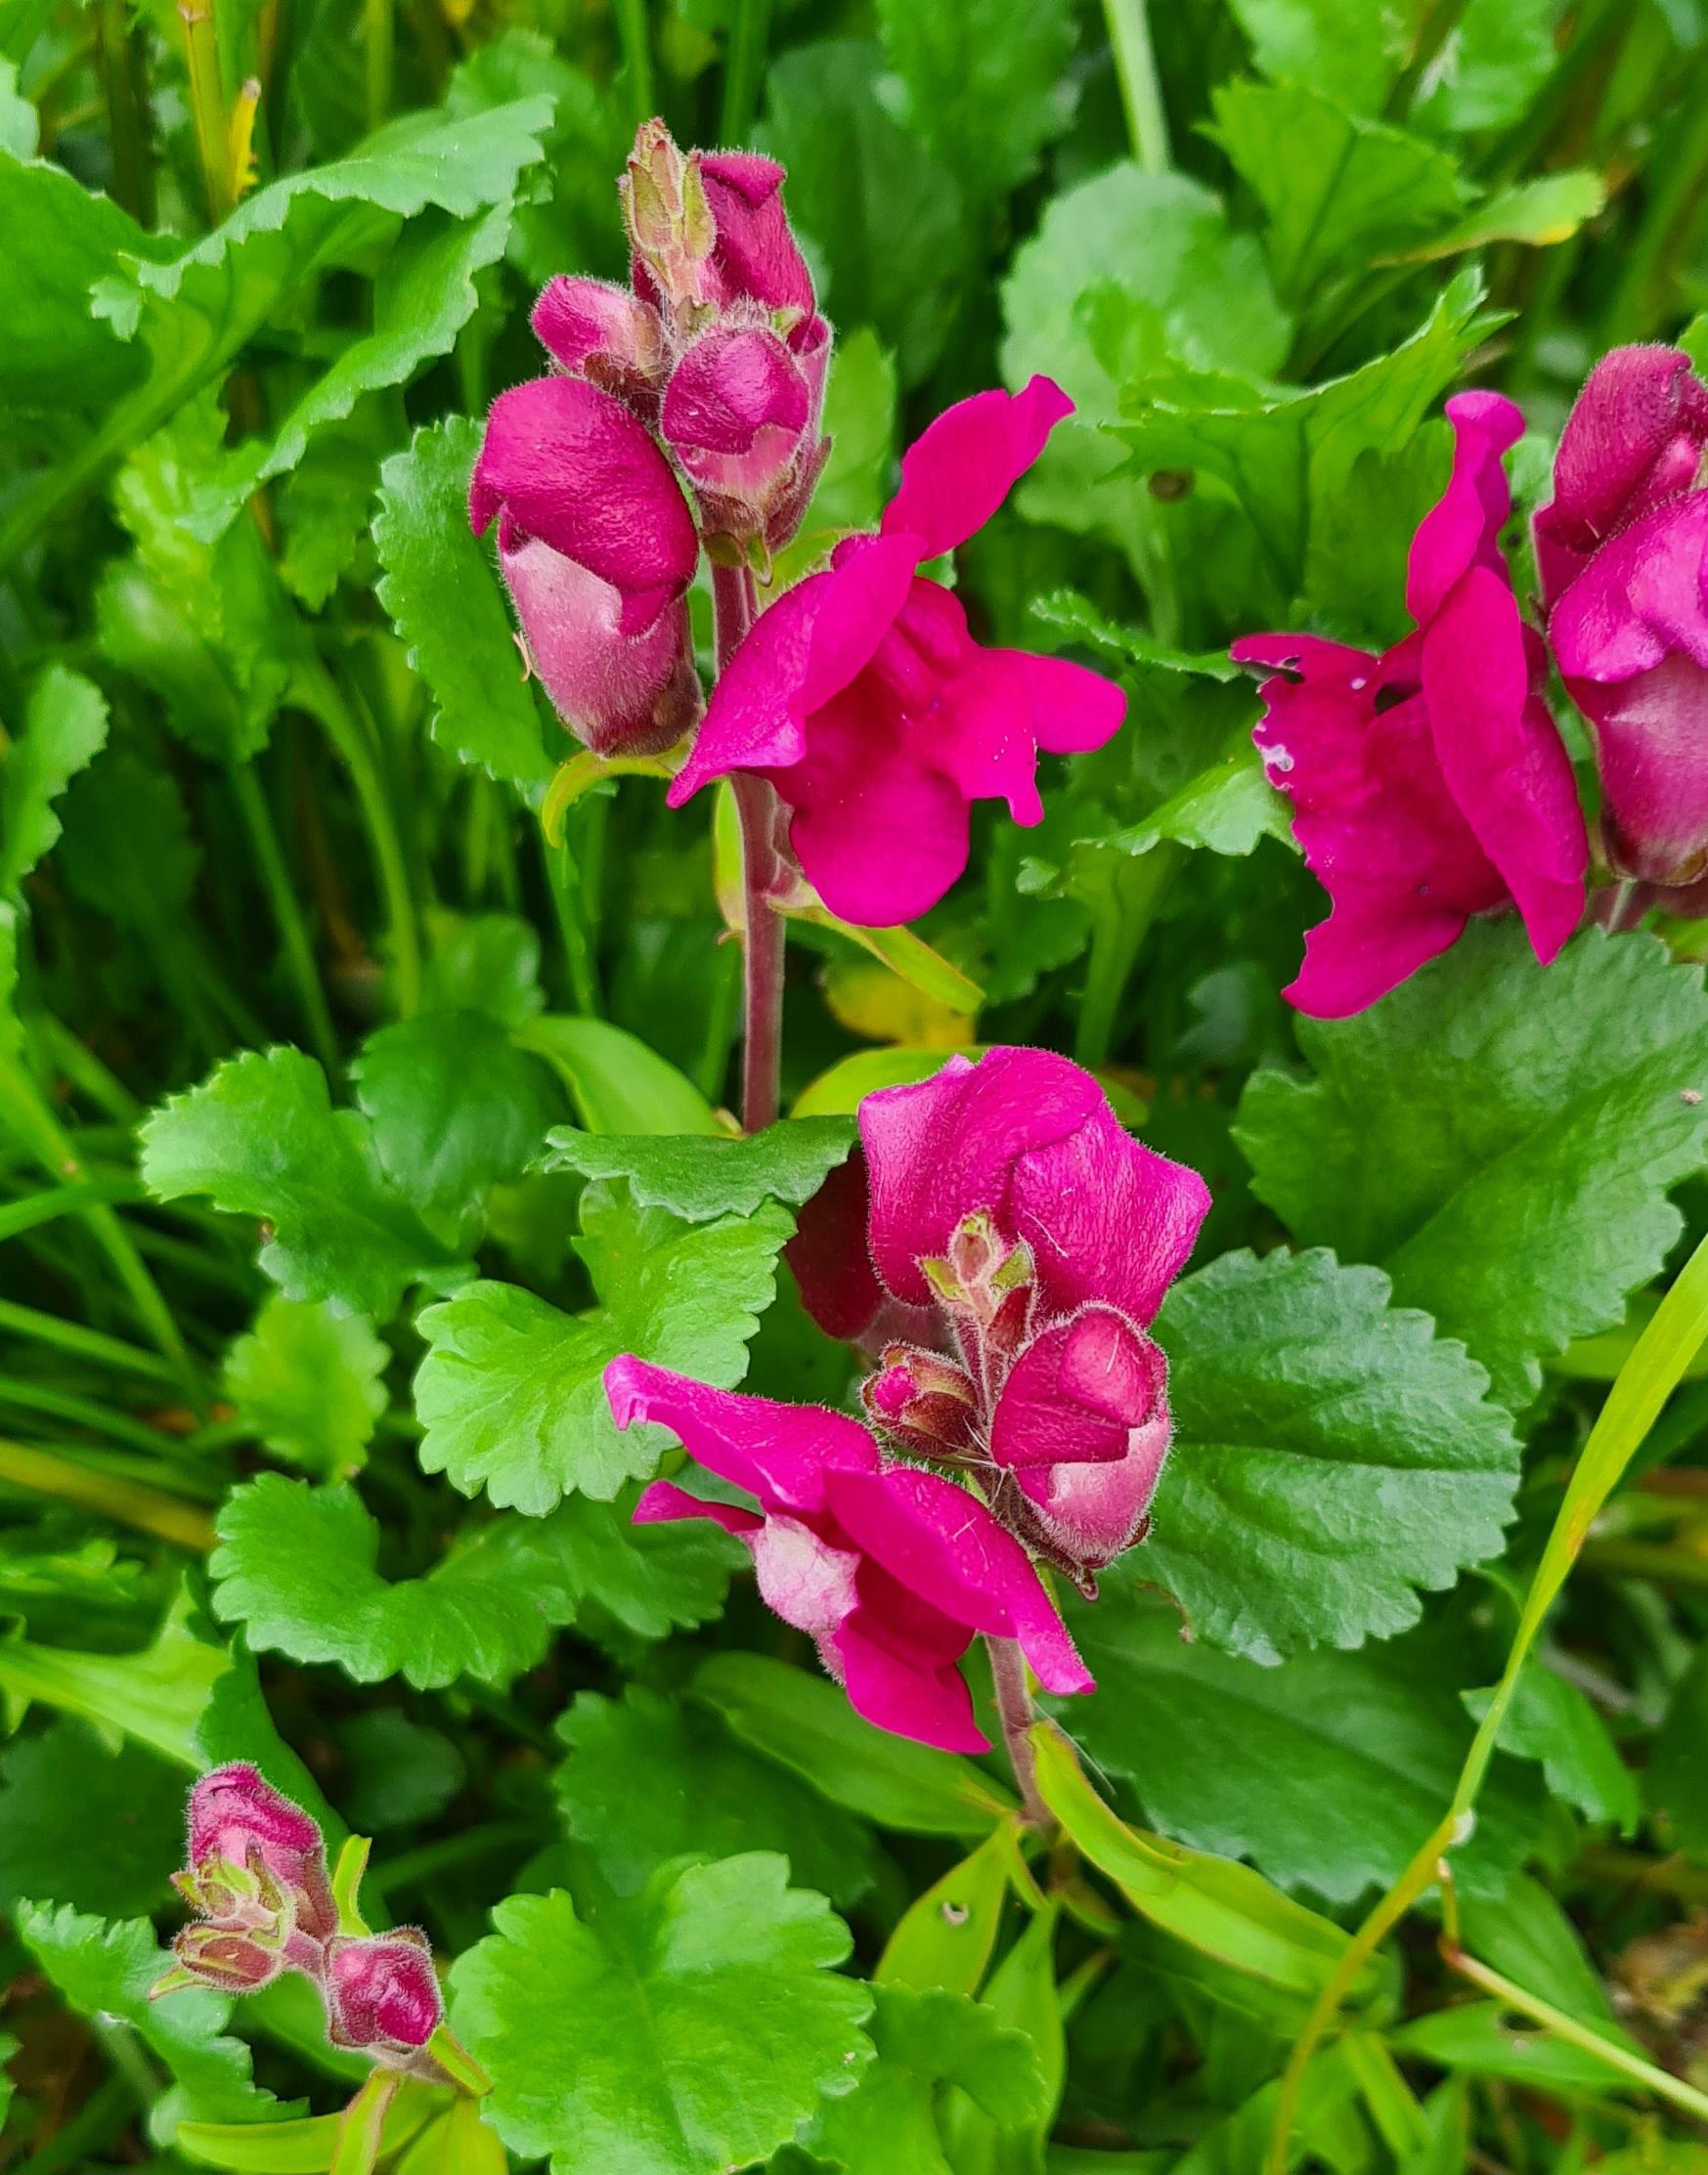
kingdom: Plantae
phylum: Tracheophyta
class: Magnoliopsida
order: Lamiales
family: Plantaginaceae
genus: Antirrhinum
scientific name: Antirrhinum majus
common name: Have-løvemund
